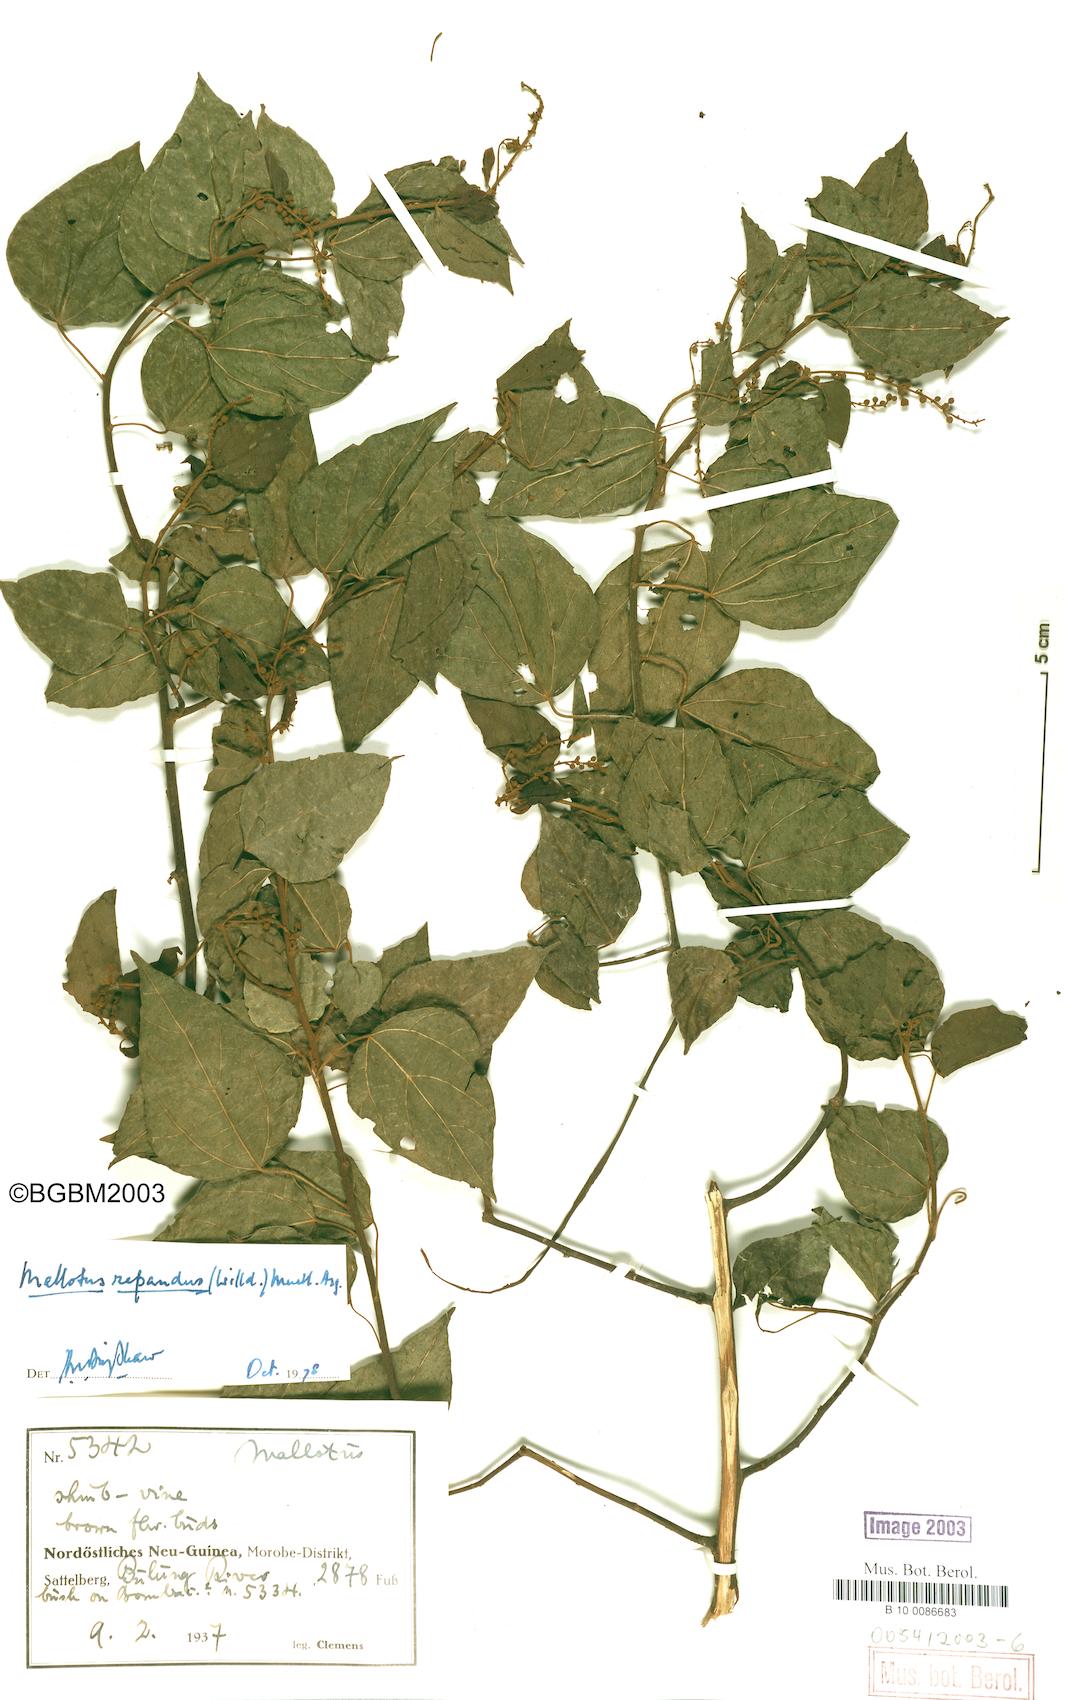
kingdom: Plantae
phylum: Tracheophyta
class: Magnoliopsida
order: Malpighiales
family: Euphorbiaceae
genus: Mallotus
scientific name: Mallotus repandus
